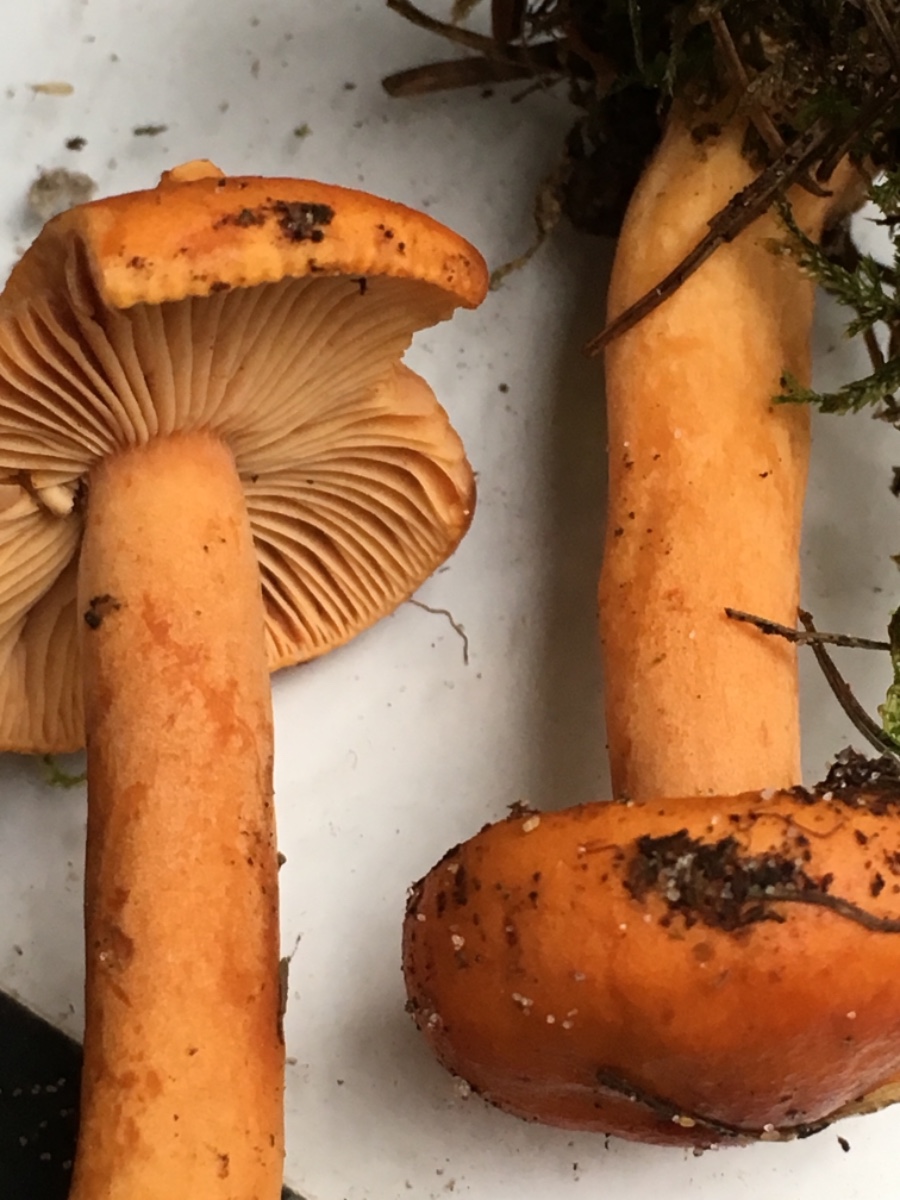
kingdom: Fungi
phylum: Basidiomycota
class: Agaricomycetes
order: Russulales
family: Russulaceae
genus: Lactarius
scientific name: Lactarius aurantiacus
